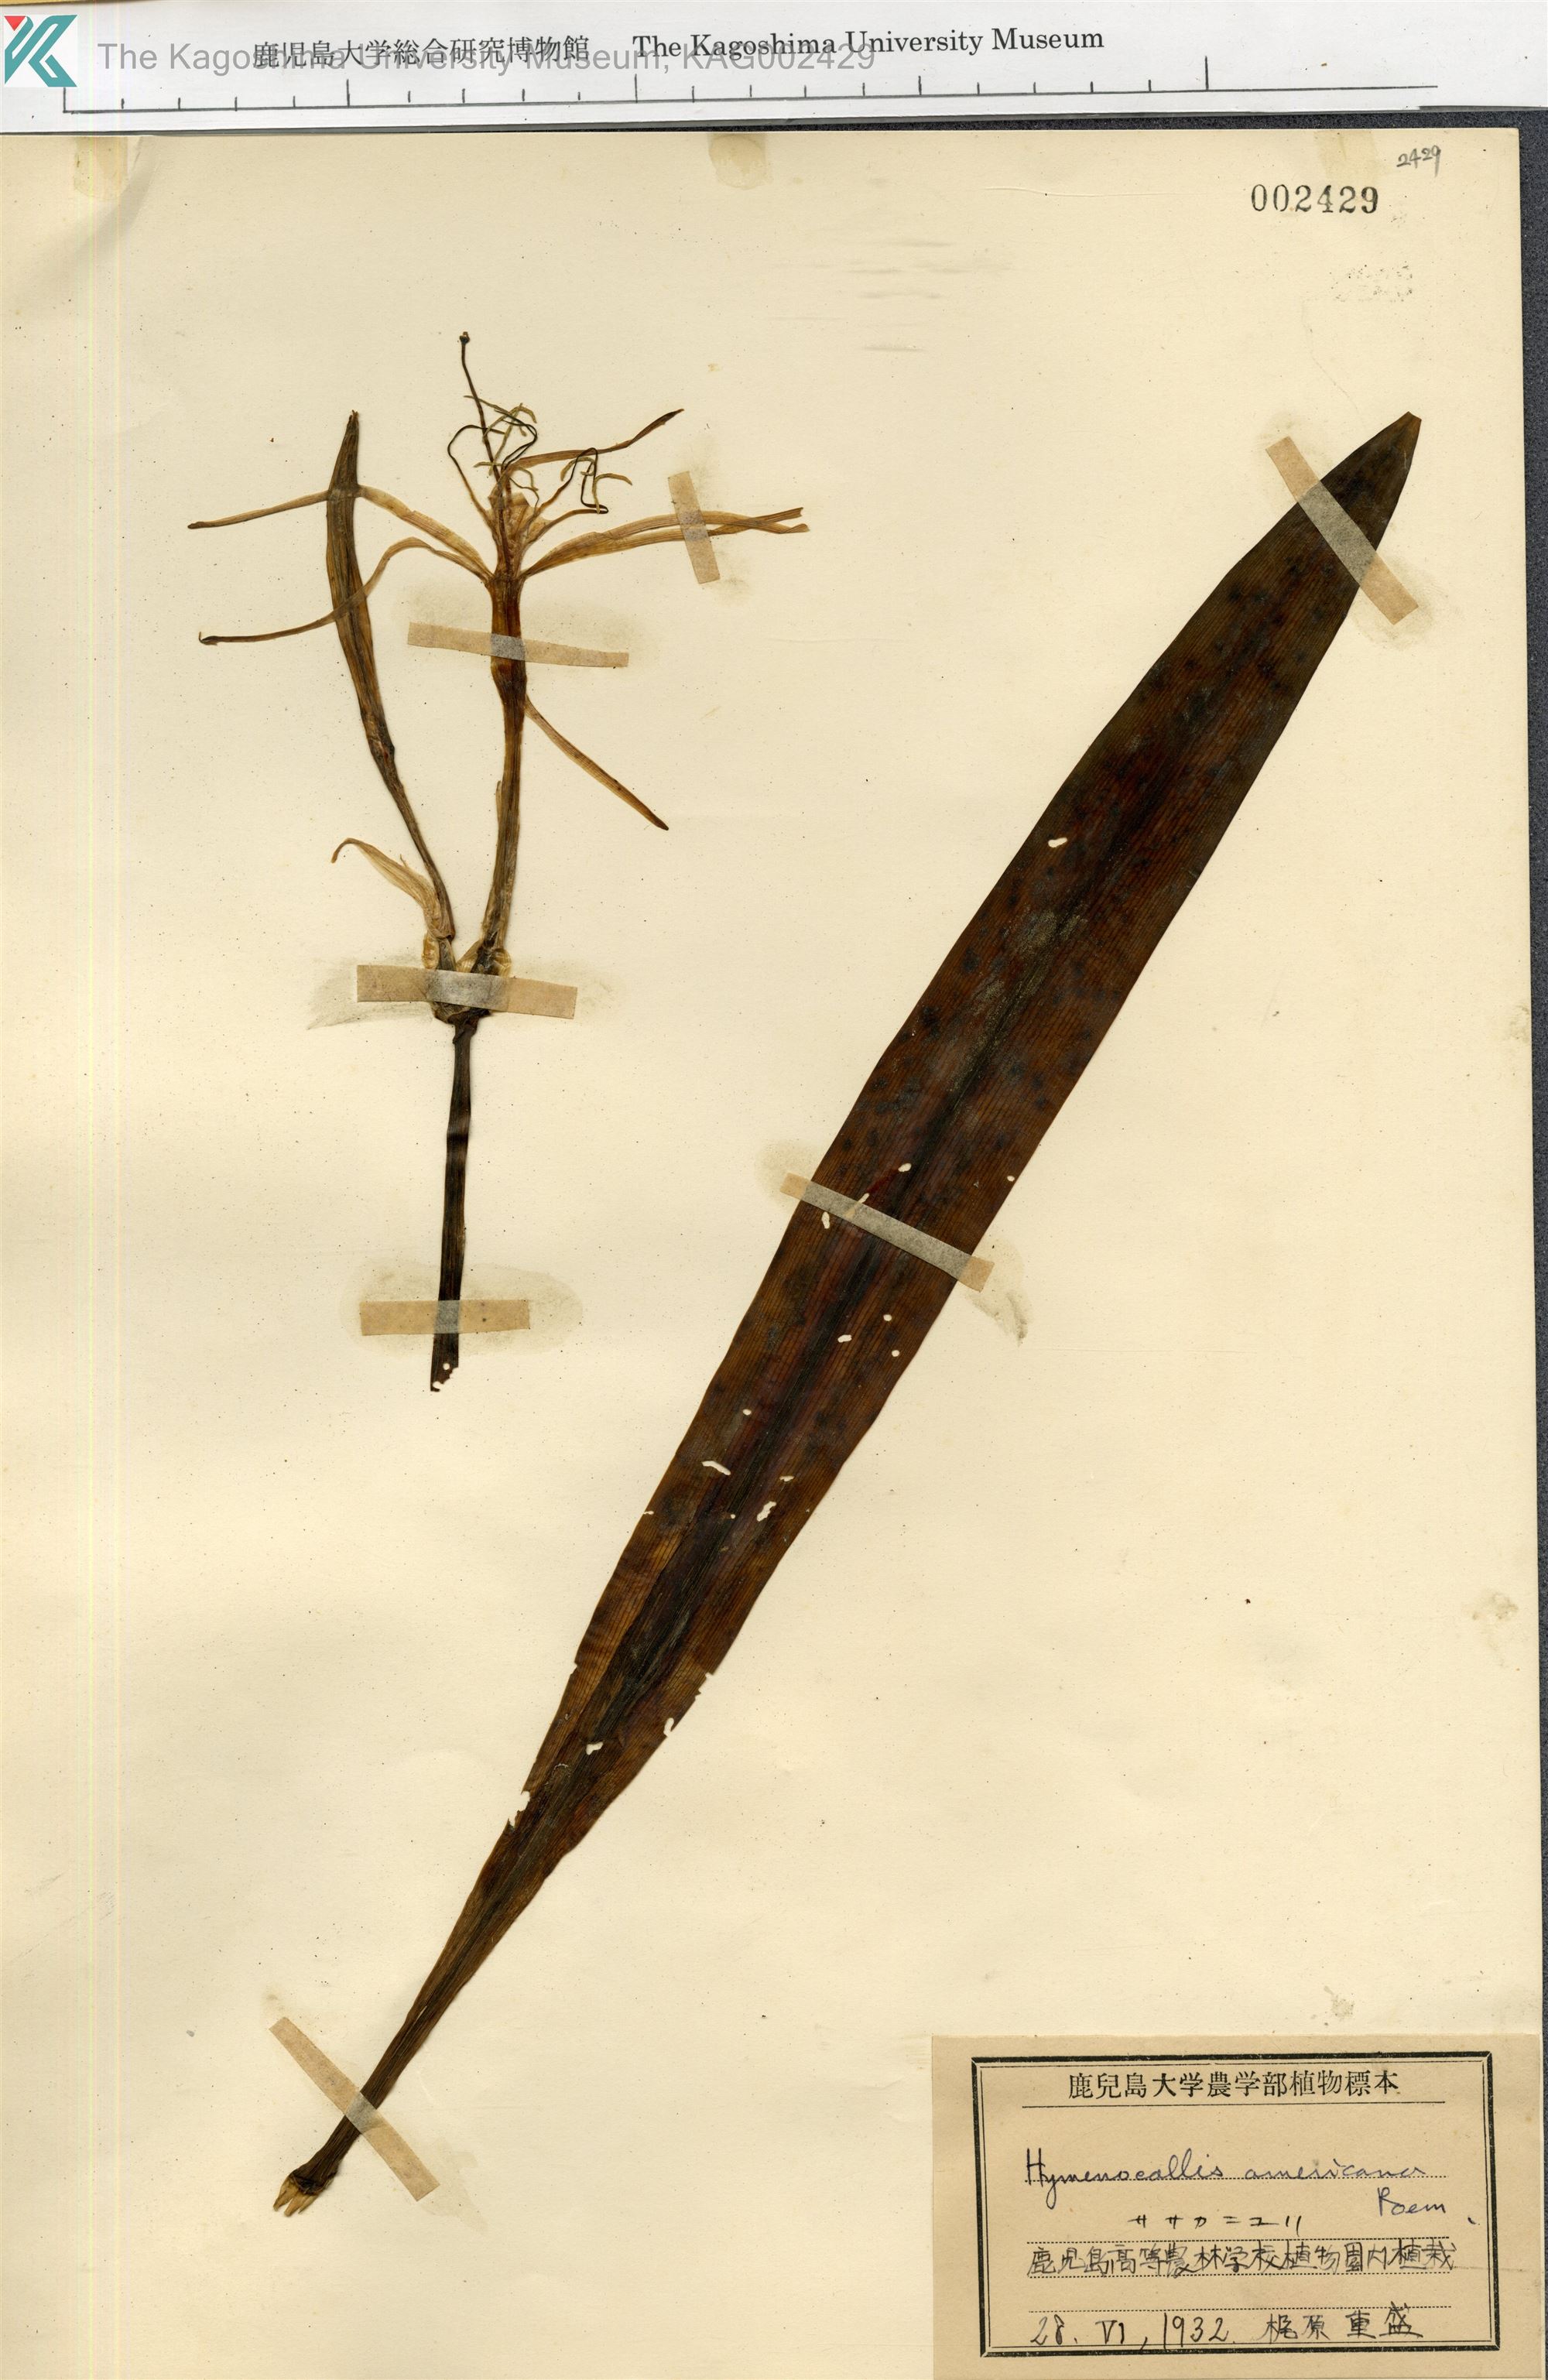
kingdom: Plantae
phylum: Tracheophyta
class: Liliopsida
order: Asparagales
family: Amaryllidaceae
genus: Hymenocallis
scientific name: Hymenocallis littoralis
